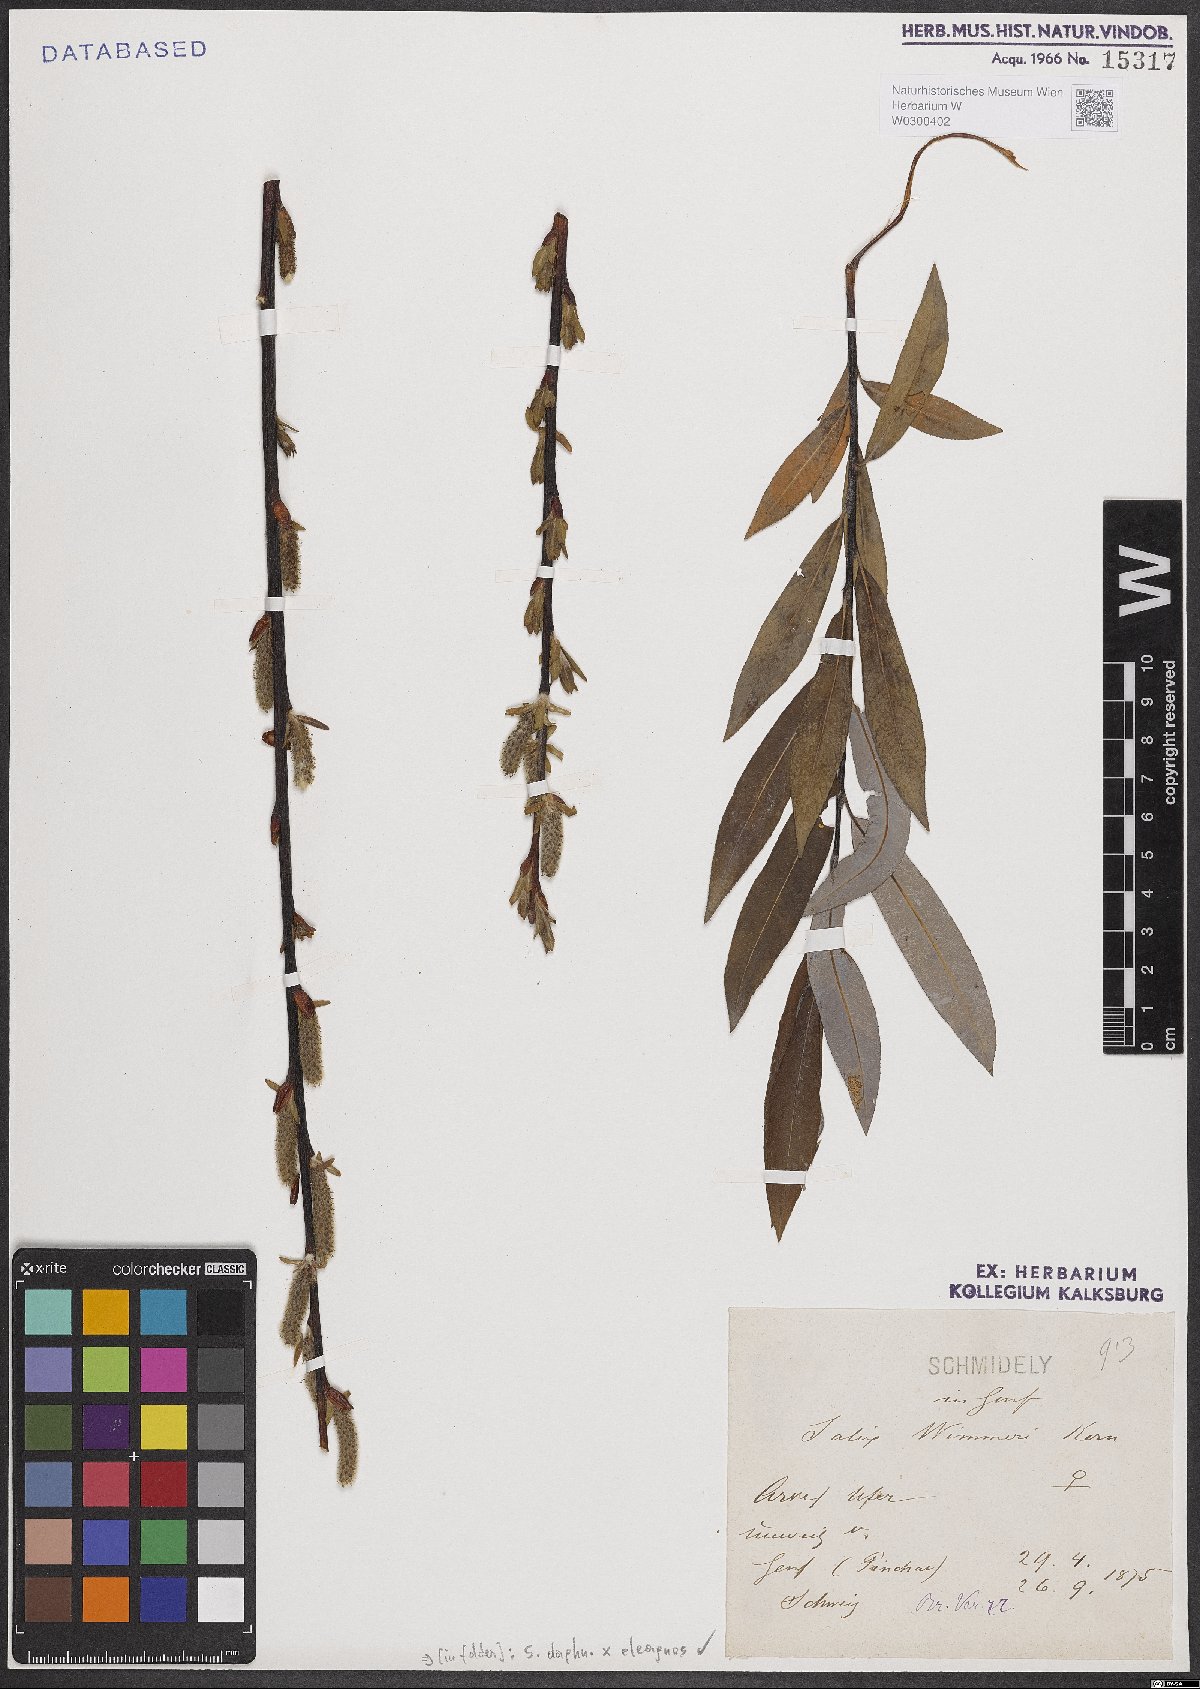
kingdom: Plantae
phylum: Tracheophyta
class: Magnoliopsida
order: Malpighiales
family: Salicaceae
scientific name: Salicaceae
